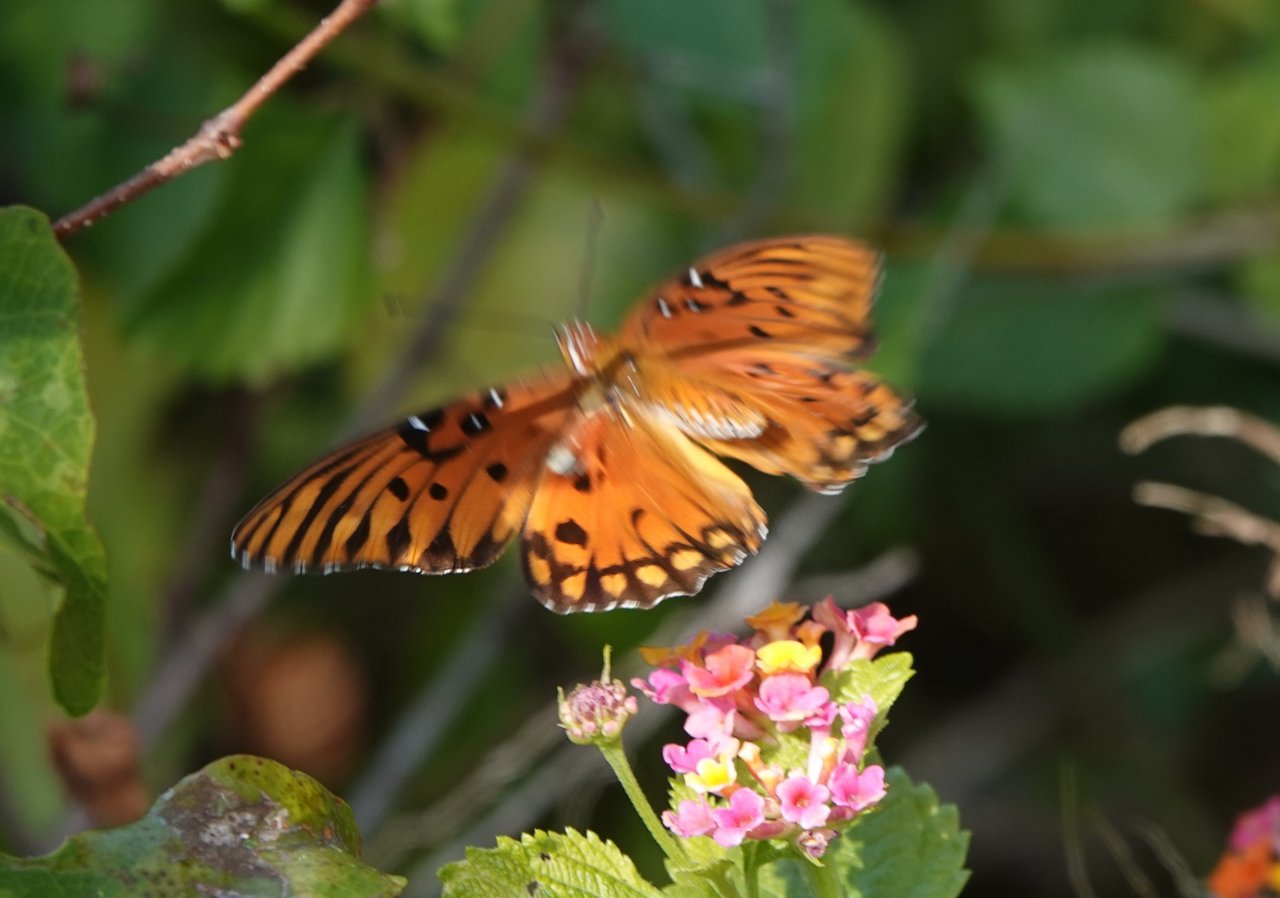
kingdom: Animalia
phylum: Arthropoda
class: Insecta
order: Lepidoptera
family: Nymphalidae
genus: Dione
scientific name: Dione vanillae
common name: Gulf Fritillary
